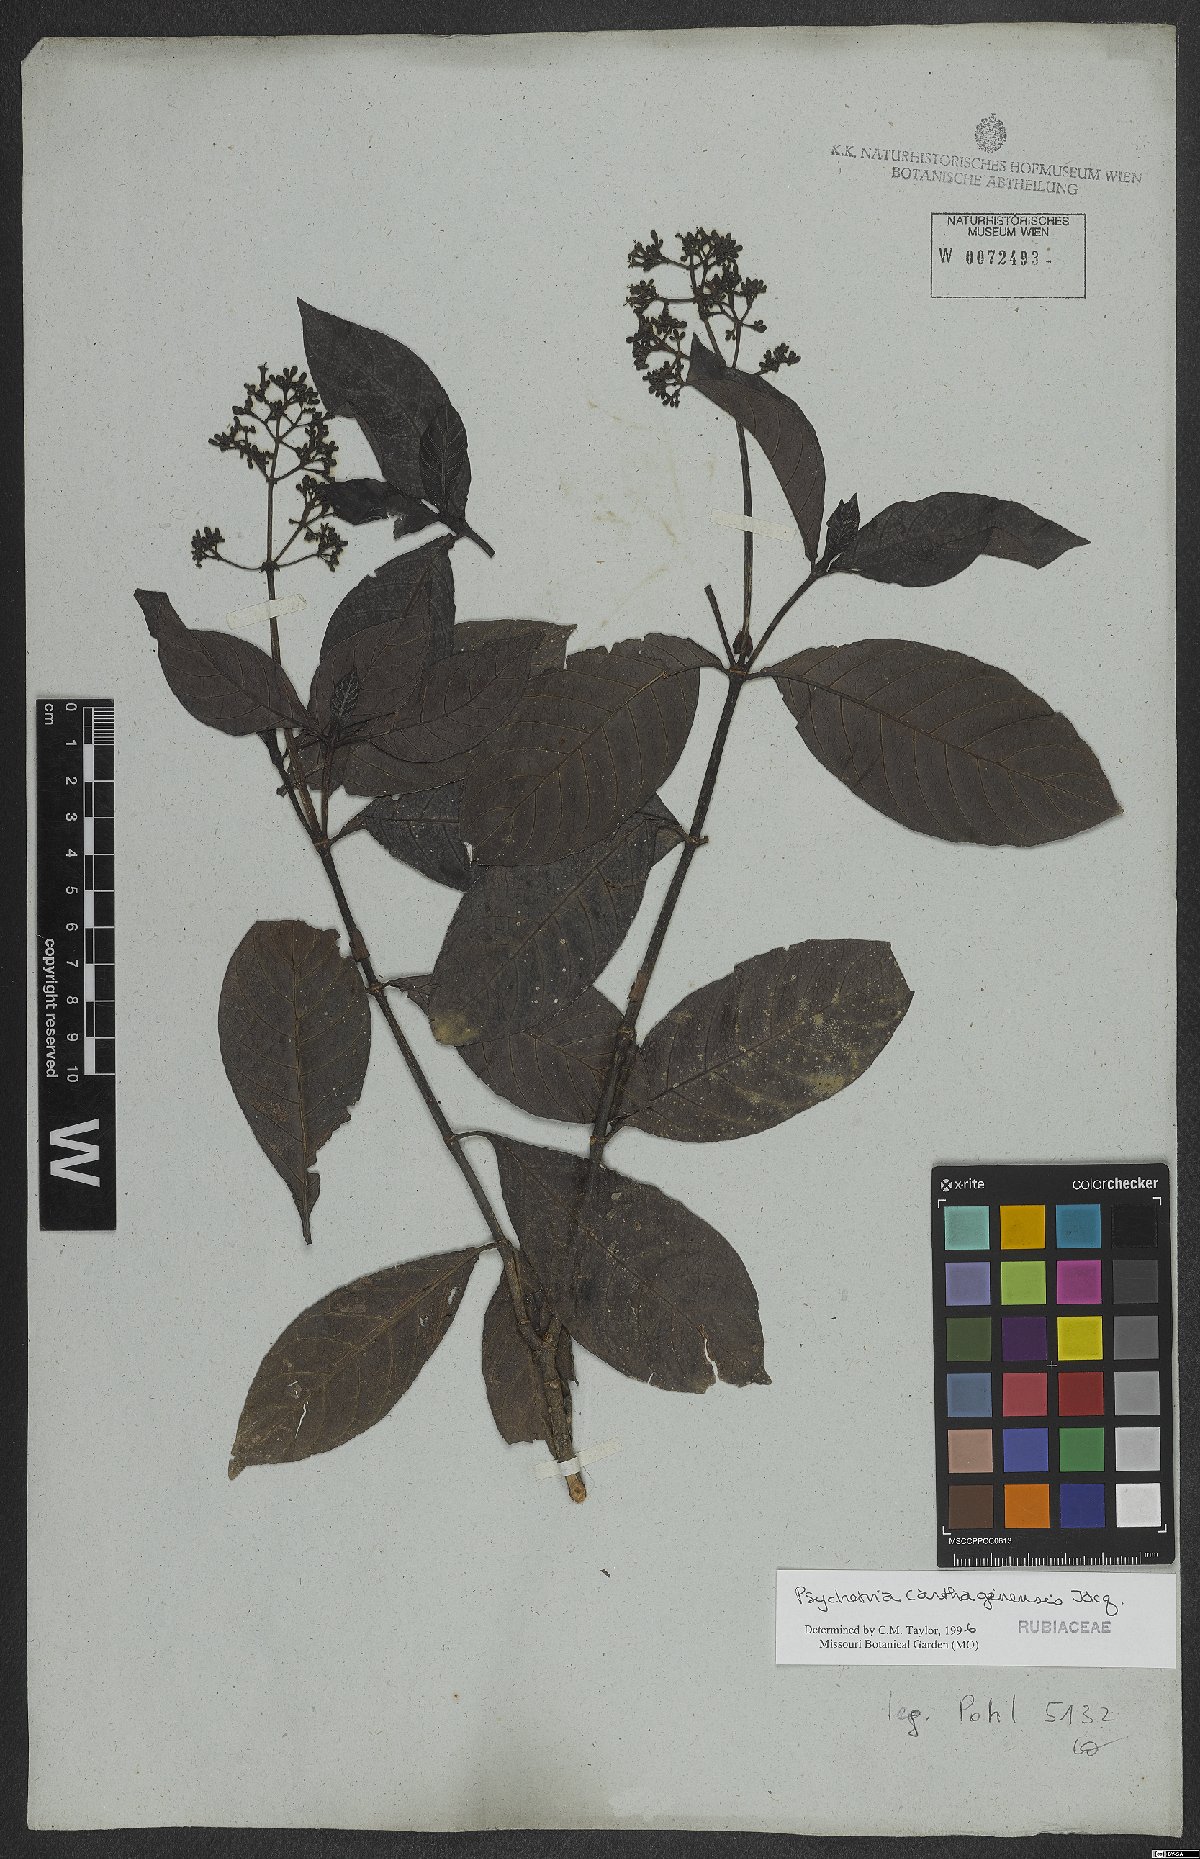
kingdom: Plantae
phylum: Tracheophyta
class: Magnoliopsida
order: Gentianales
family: Rubiaceae
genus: Psychotria
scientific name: Psychotria carthagenensis
